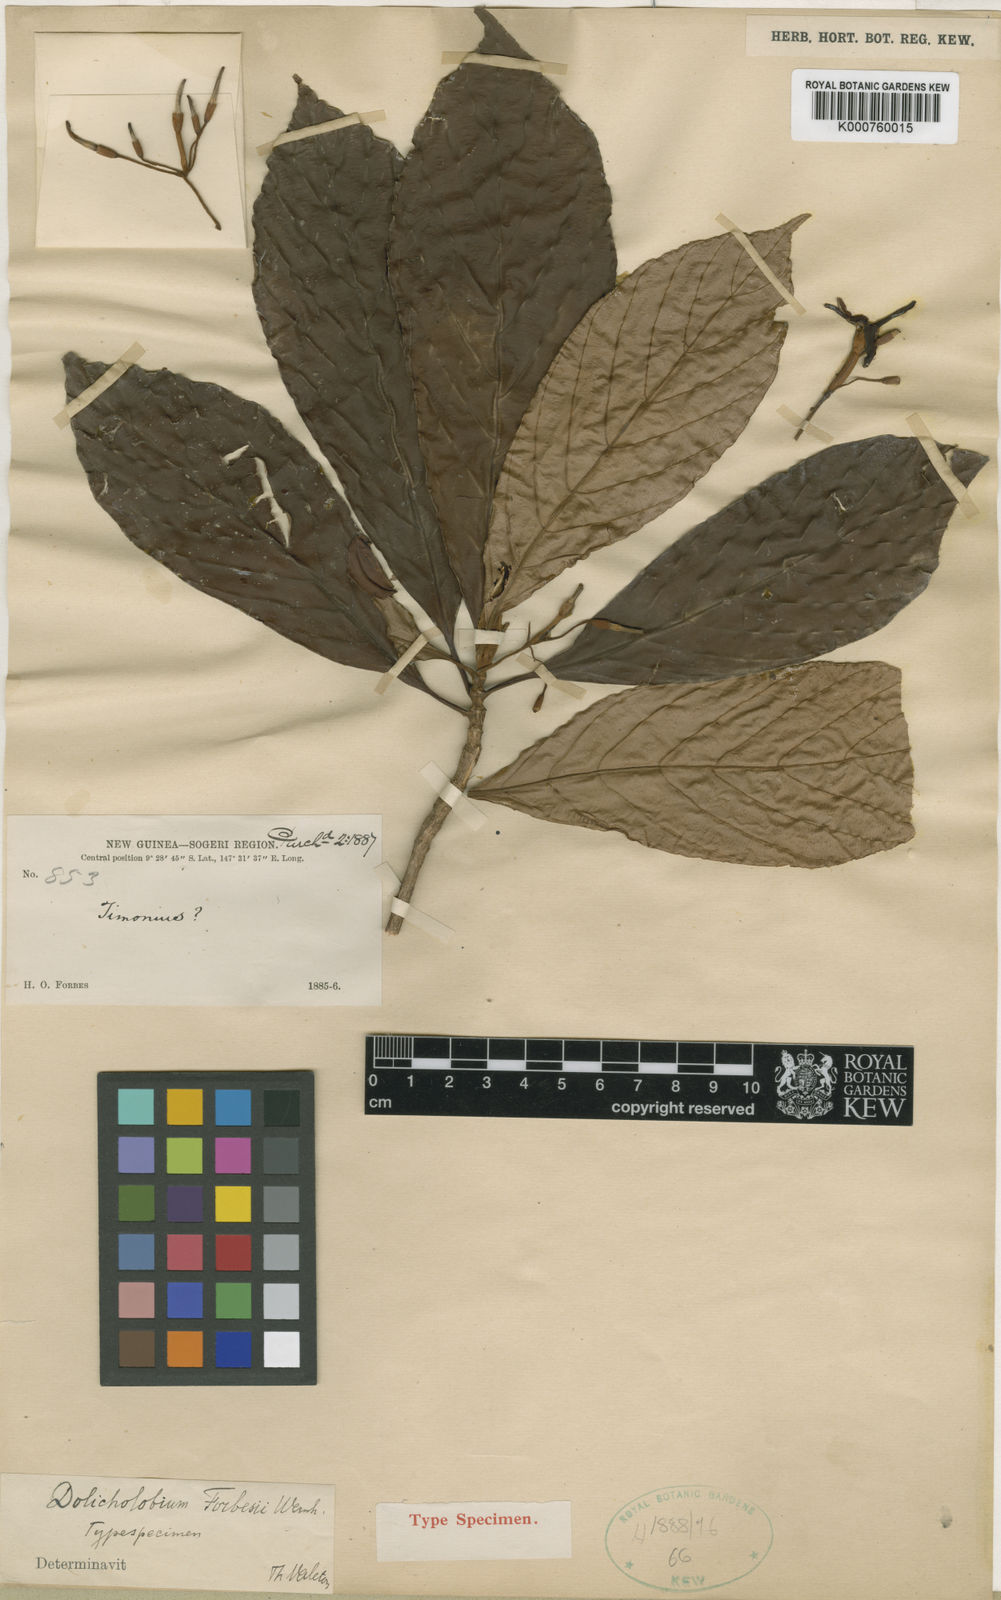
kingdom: Plantae
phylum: Tracheophyta
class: Magnoliopsida
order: Gentianales
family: Rubiaceae
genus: Dolicholobium
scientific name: Dolicholobium forbesii
